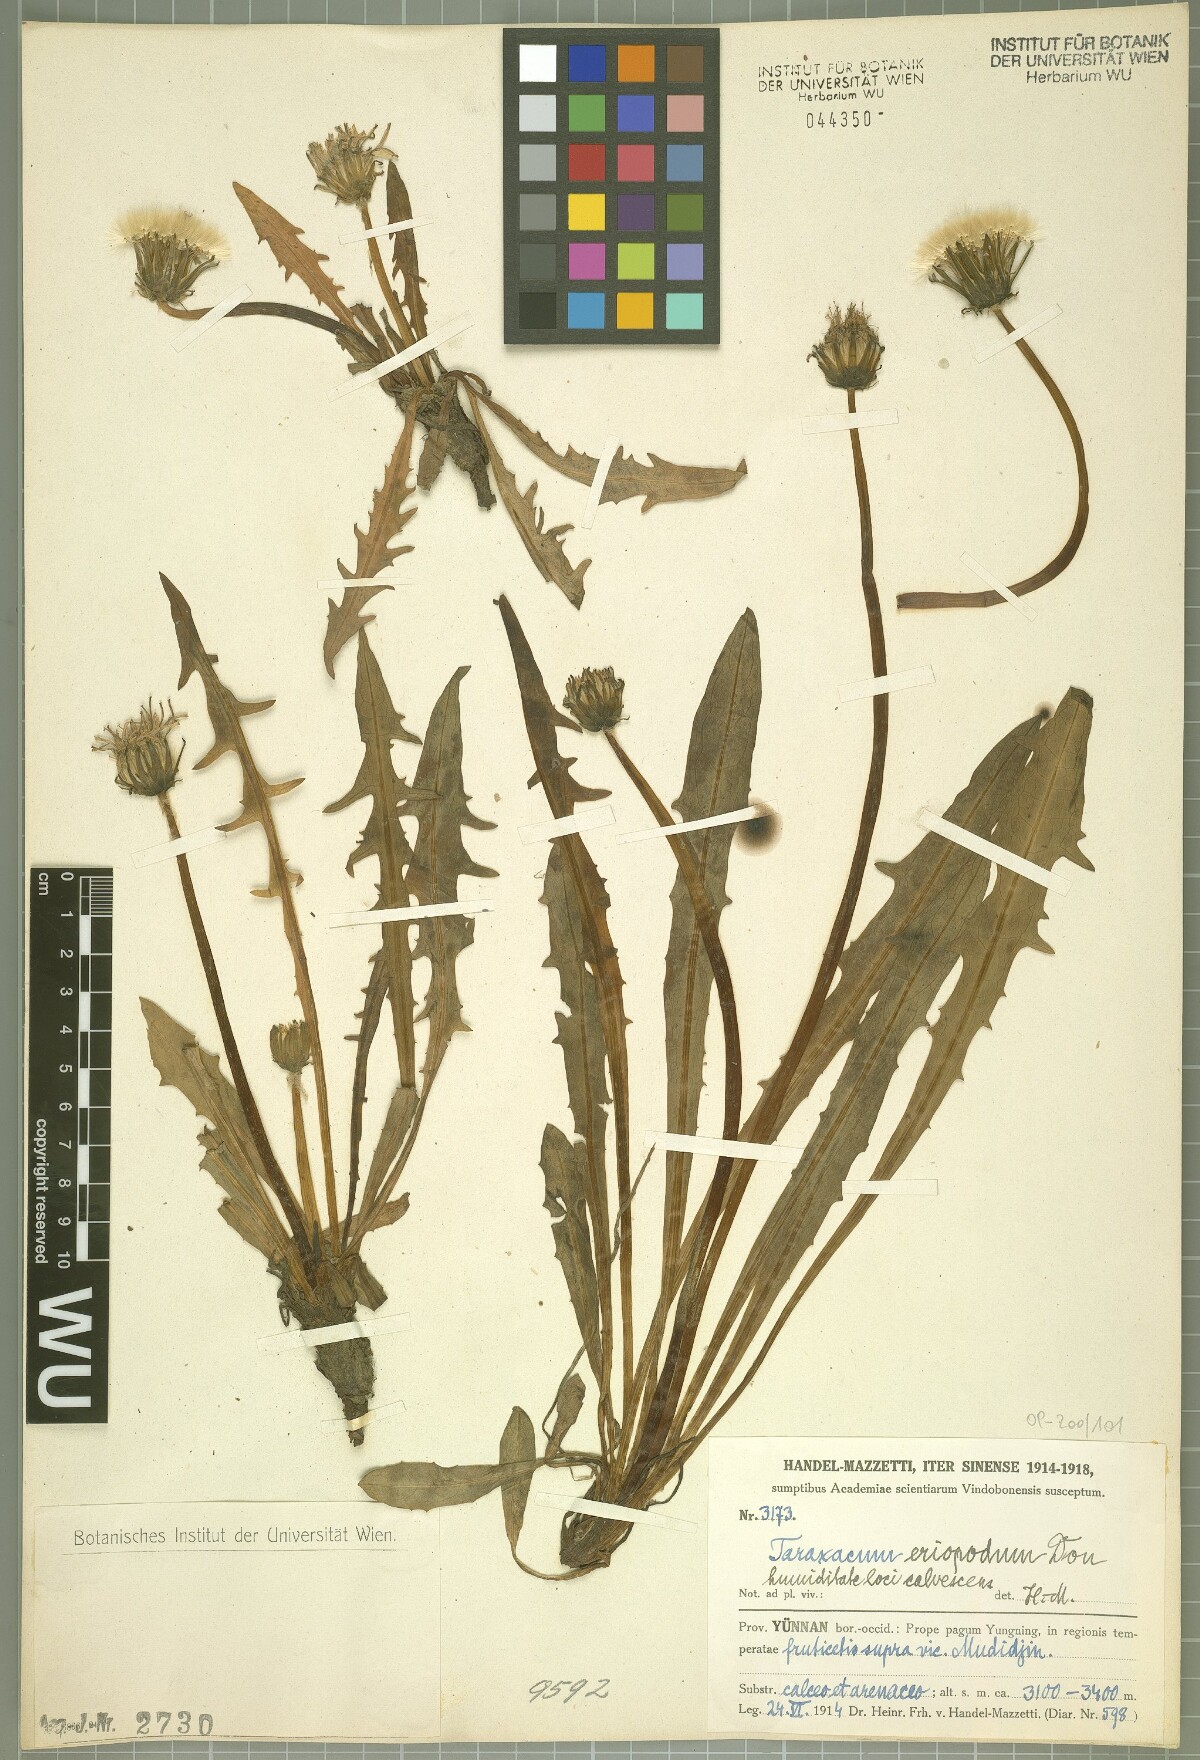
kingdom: Plantae
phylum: Tracheophyta
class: Magnoliopsida
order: Asterales
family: Asteraceae
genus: Taraxacum
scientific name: Taraxacum eriopodum
